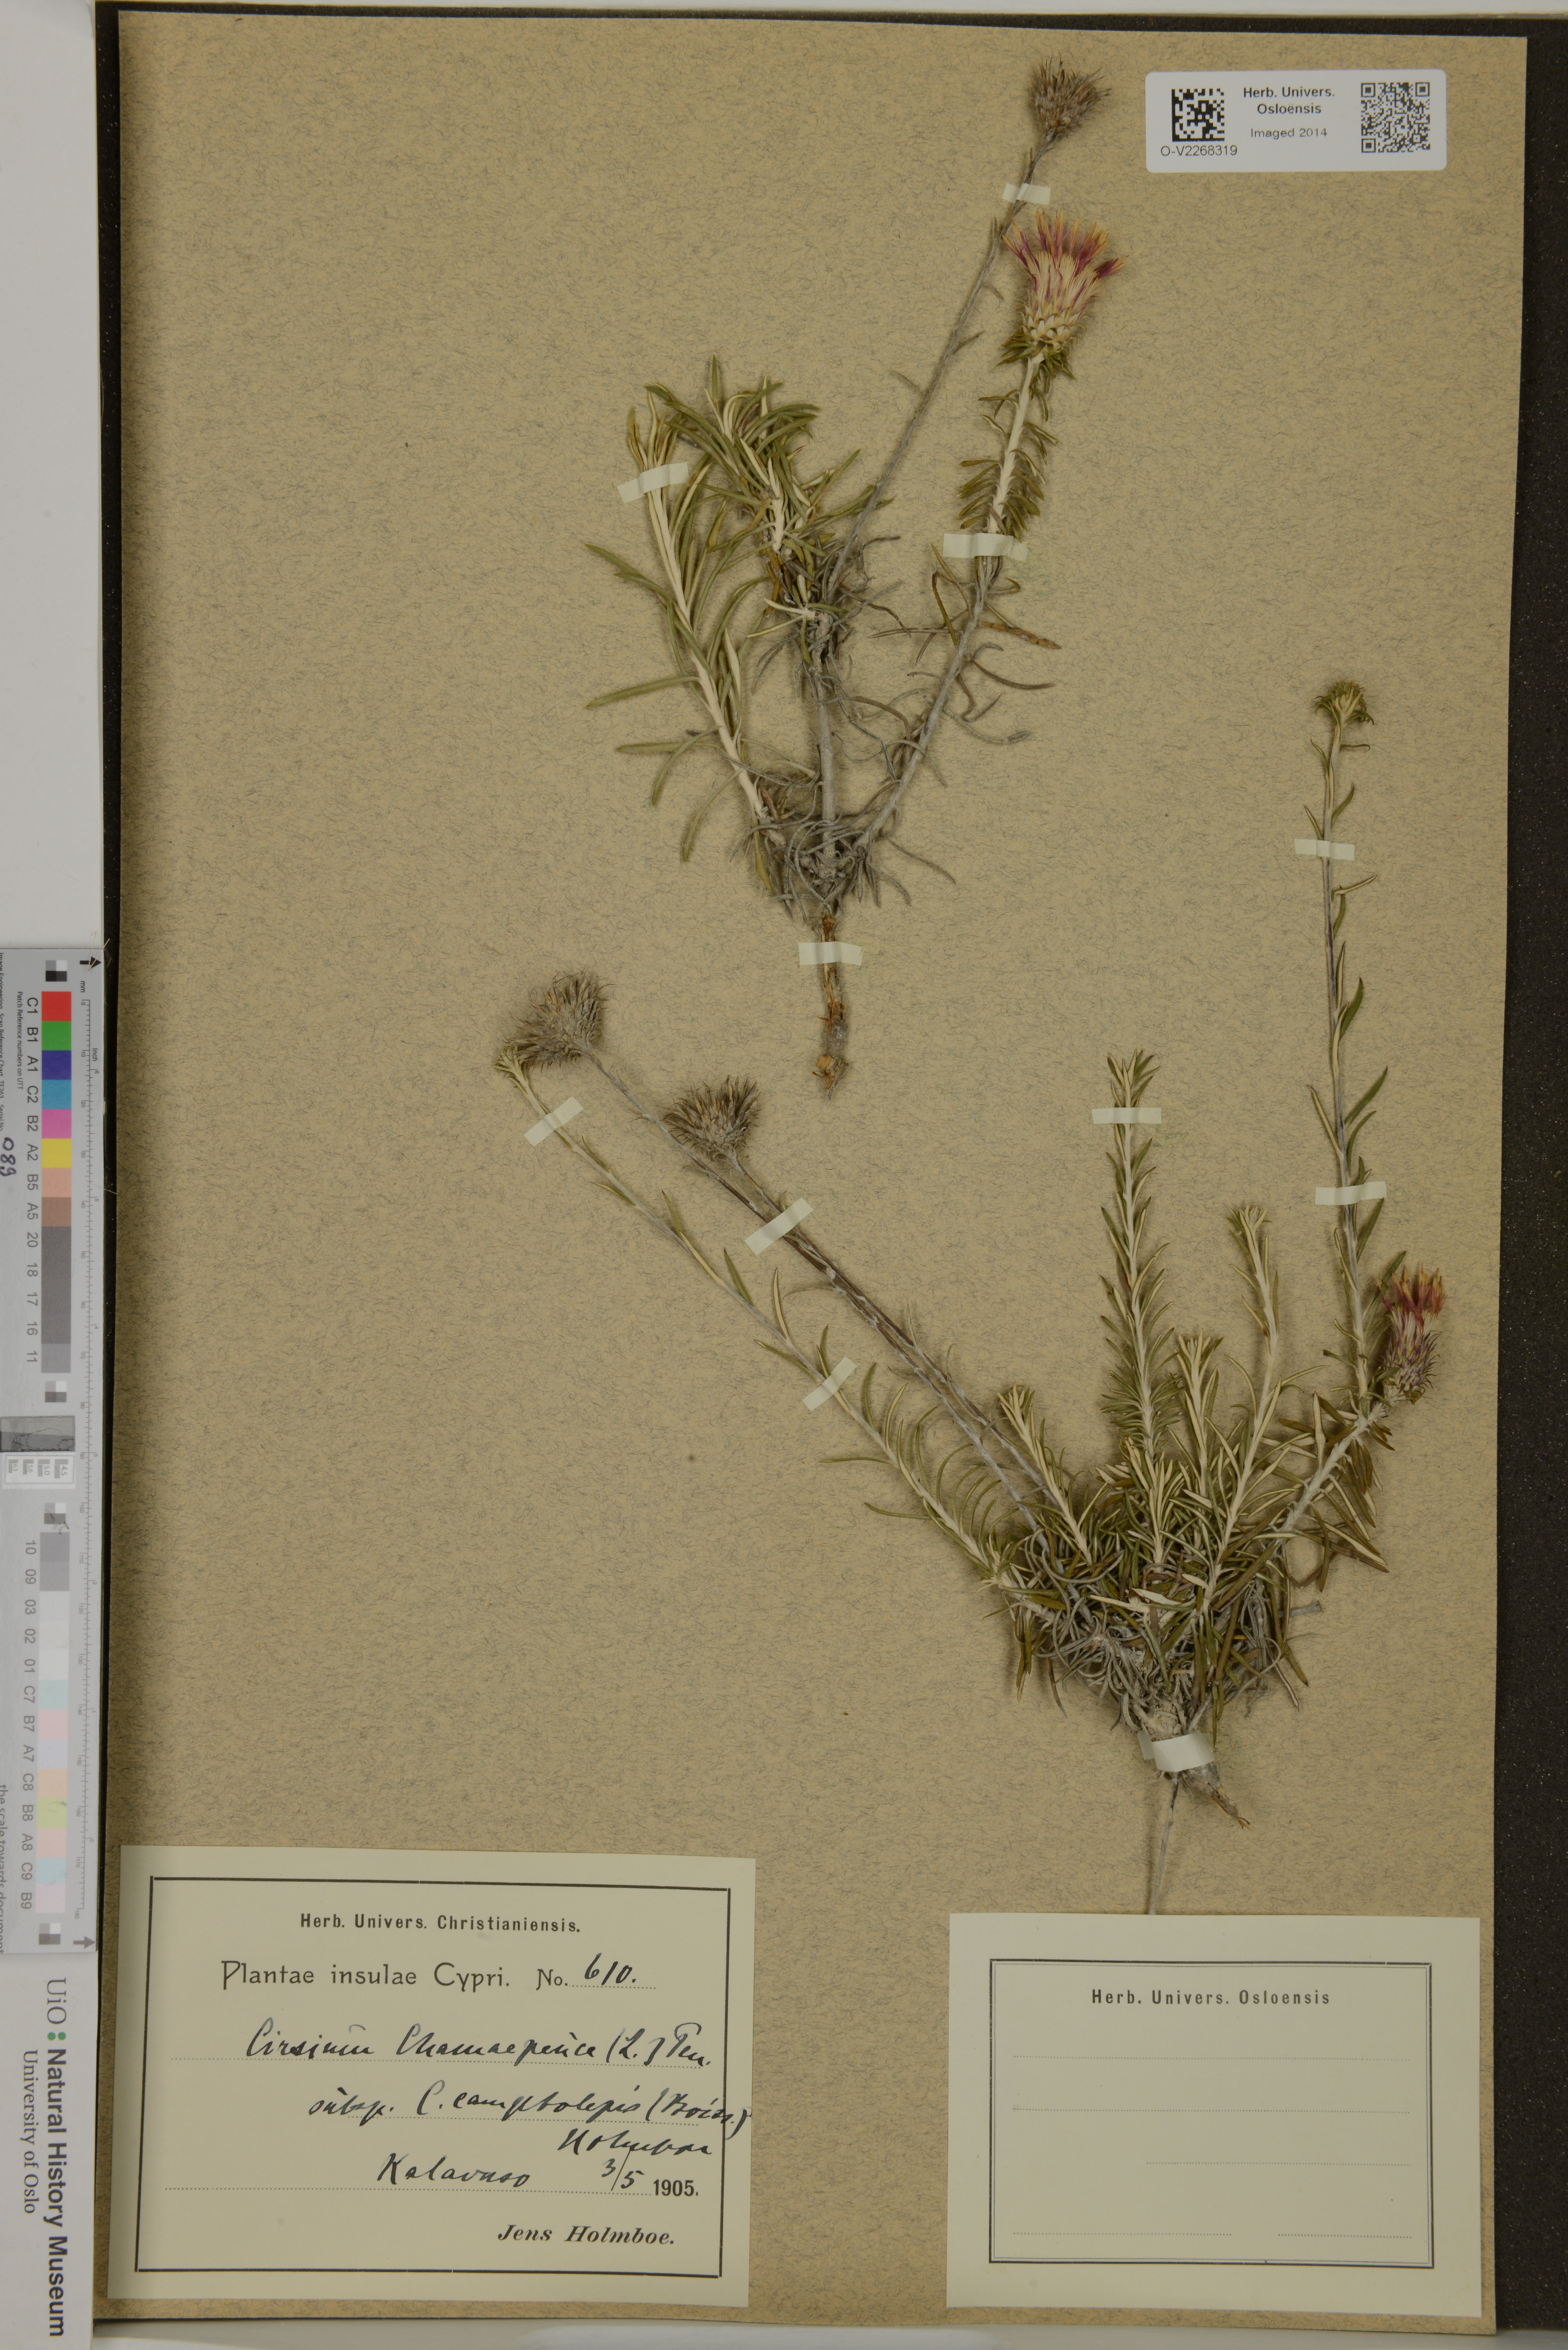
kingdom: Plantae
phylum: Tracheophyta
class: Magnoliopsida
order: Asterales
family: Asteraceae
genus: Ptilostemon
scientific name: Ptilostemon chamaepeuce
